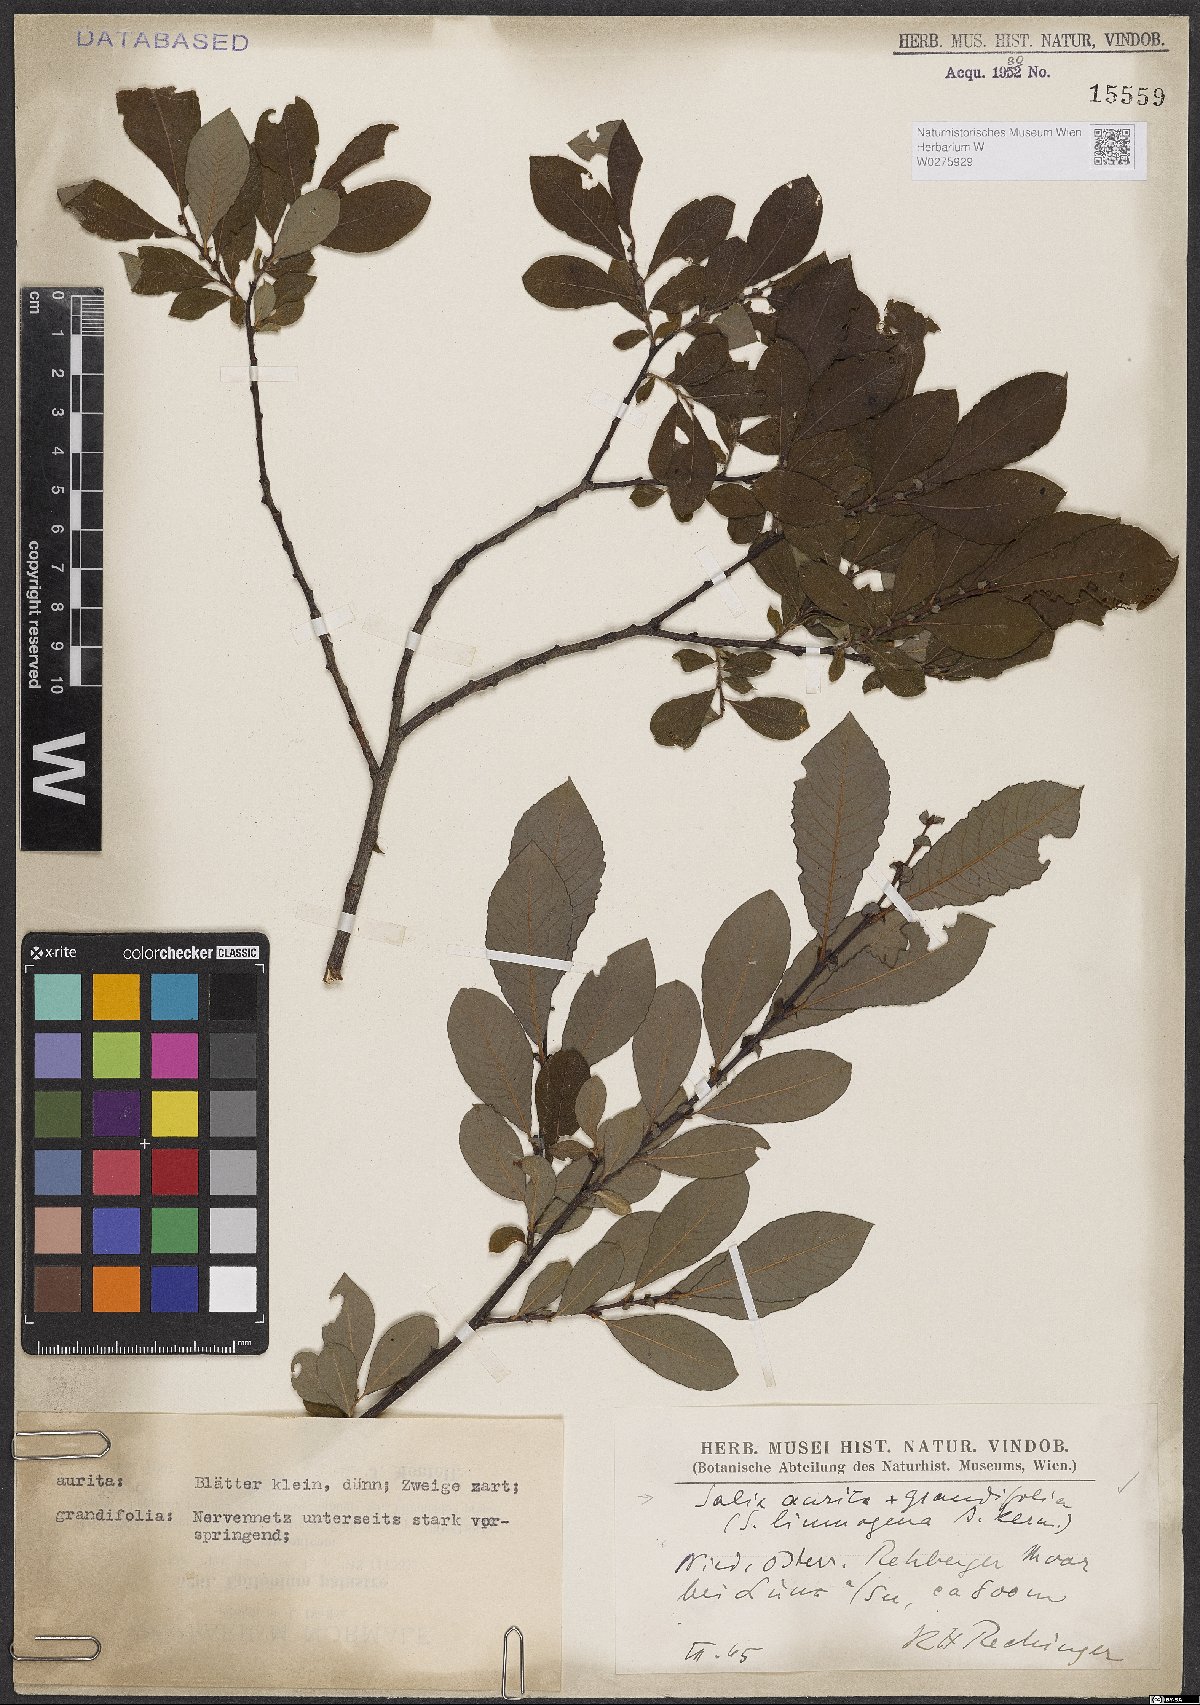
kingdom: Plantae
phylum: Tracheophyta
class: Magnoliopsida
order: Malpighiales
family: Salicaceae
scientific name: Salicaceae
